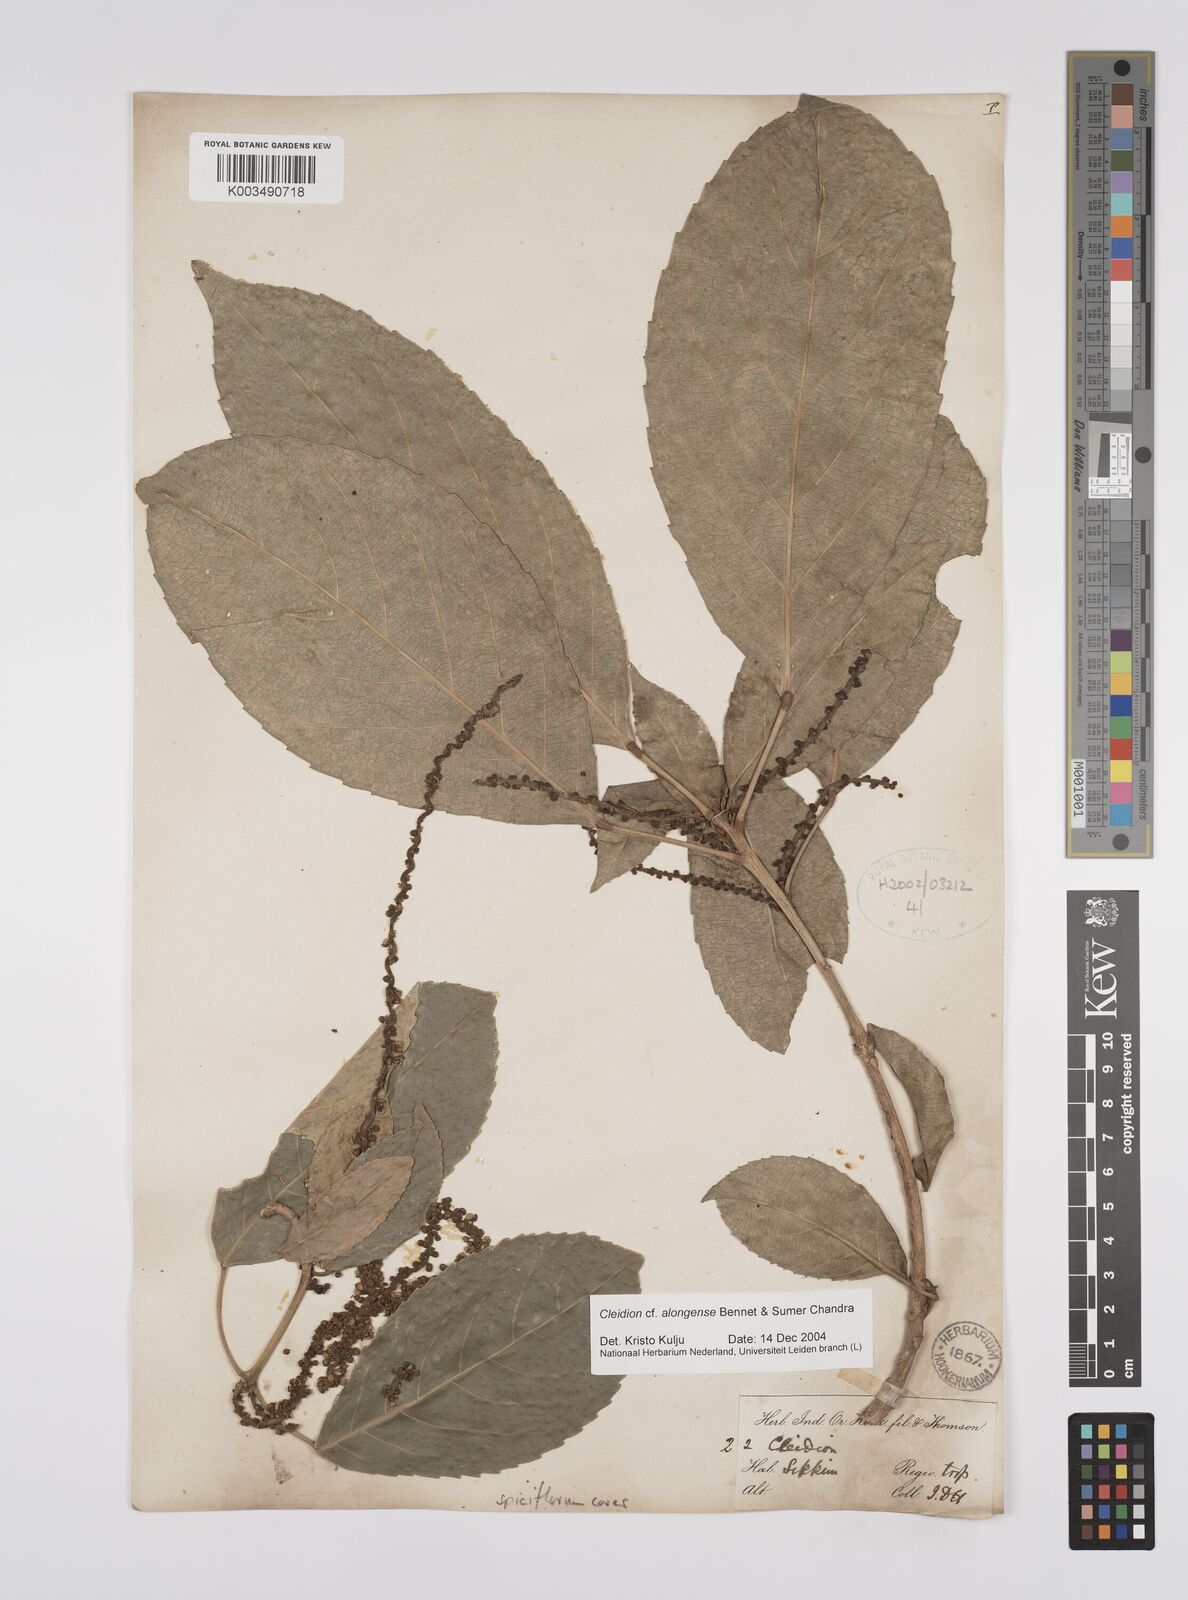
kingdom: Plantae
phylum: Tracheophyta
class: Magnoliopsida
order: Malpighiales
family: Euphorbiaceae
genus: Cleidion
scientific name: Cleidion javanicum
